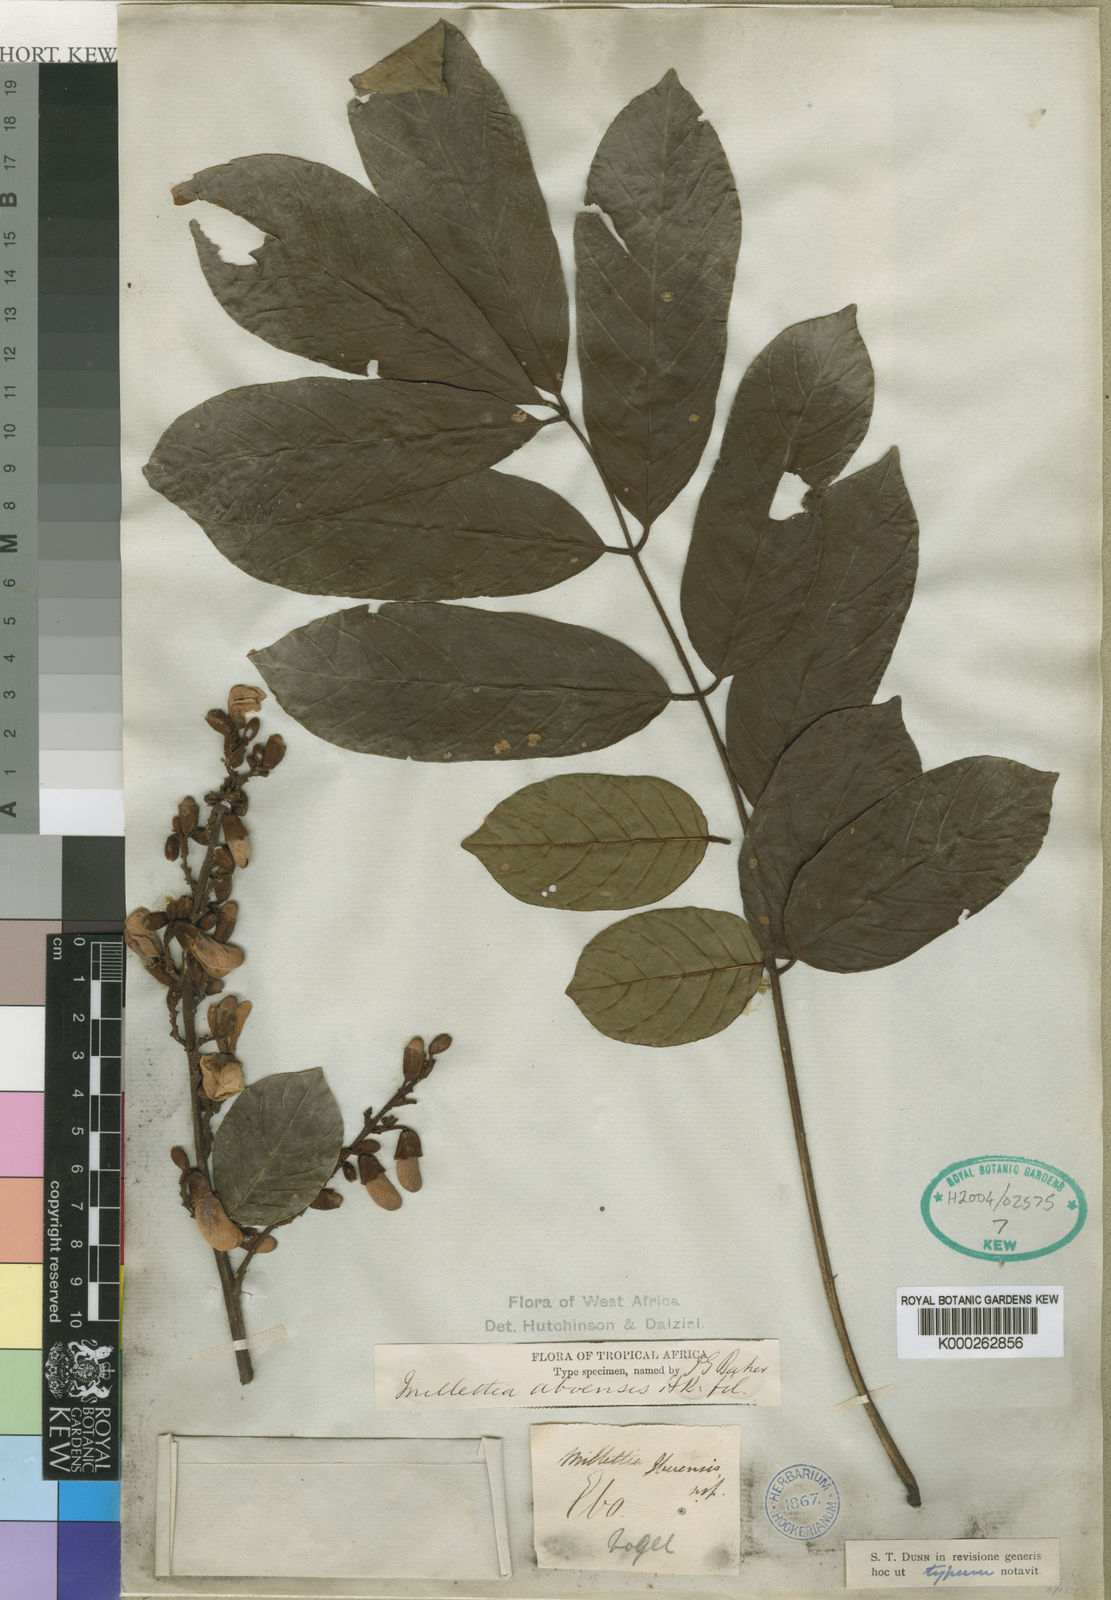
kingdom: Plantae
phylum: Tracheophyta
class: Magnoliopsida
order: Fabales
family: Fabaceae
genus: Millettia
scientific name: Millettia aboensis
